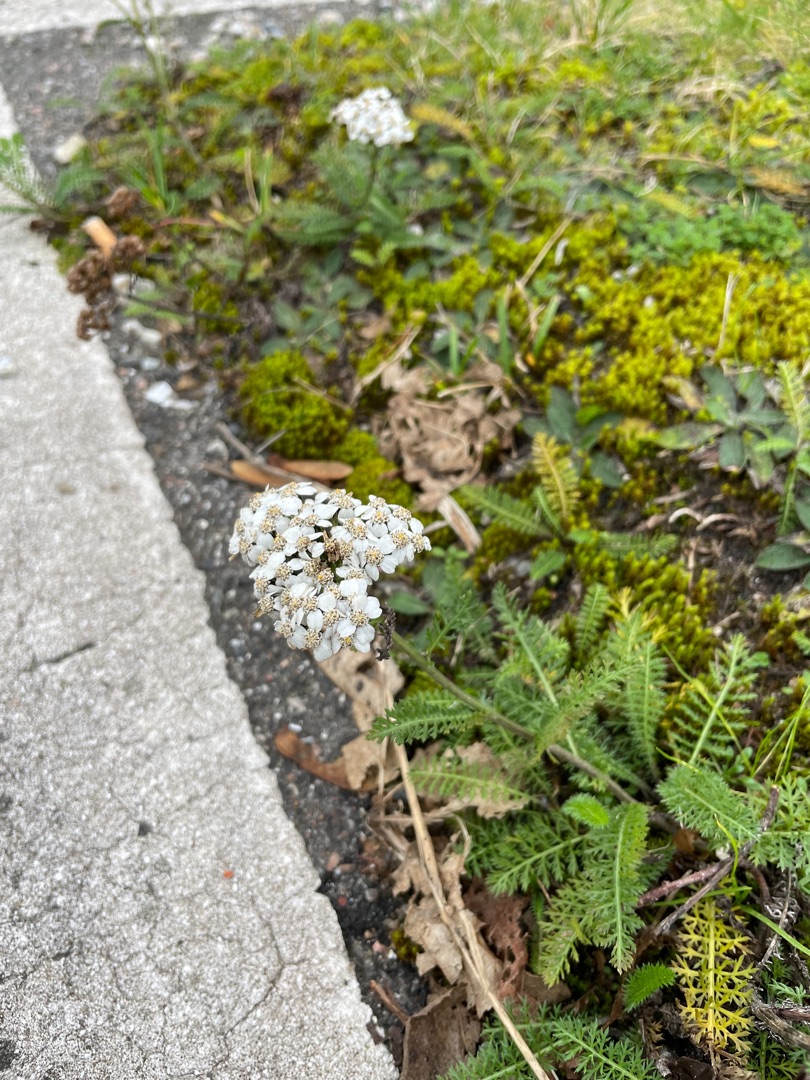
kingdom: Plantae
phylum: Tracheophyta
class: Magnoliopsida
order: Asterales
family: Asteraceae
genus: Achillea
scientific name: Achillea millefolium
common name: Almindelig røllike
